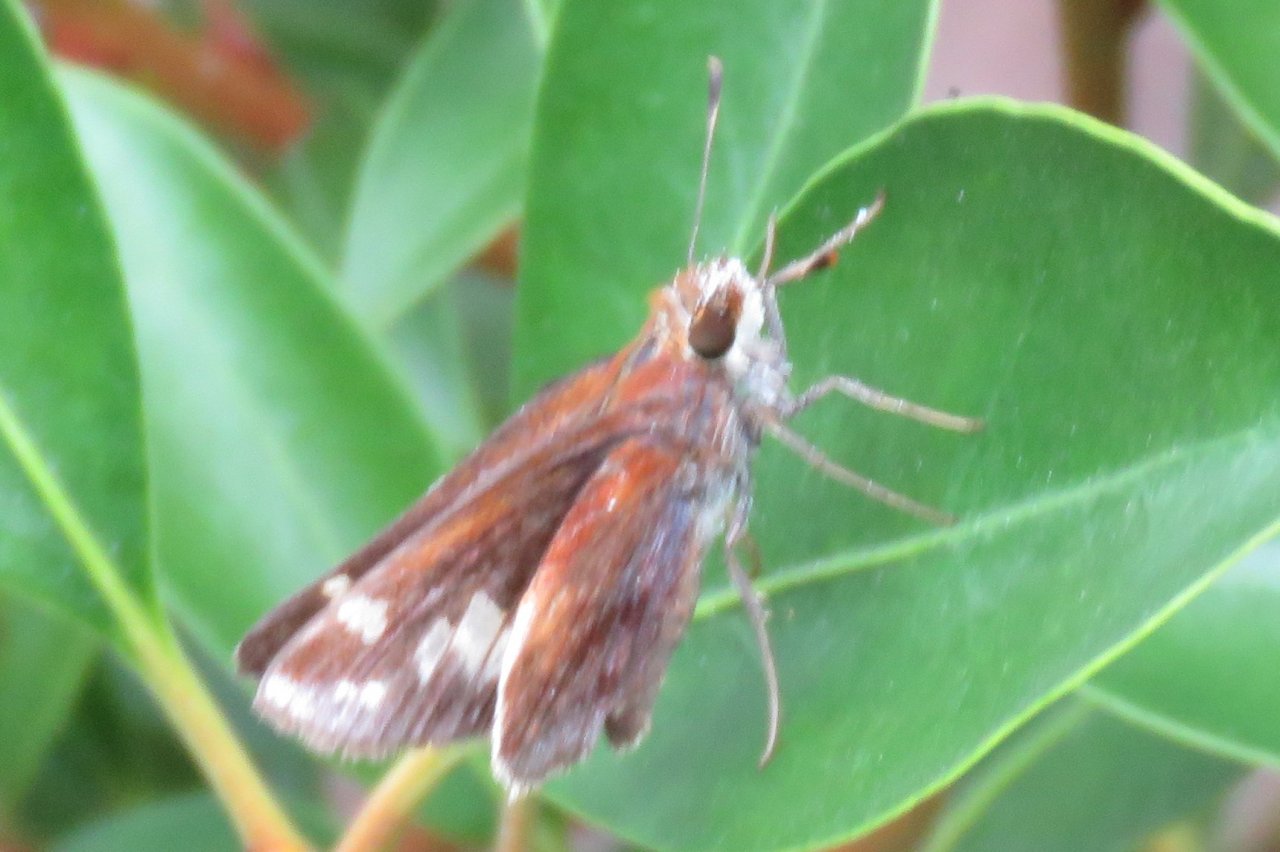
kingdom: Animalia
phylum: Arthropoda
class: Insecta
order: Lepidoptera
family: Hesperiidae
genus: Lon
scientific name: Lon zabulon
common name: Zabulon Skipper
